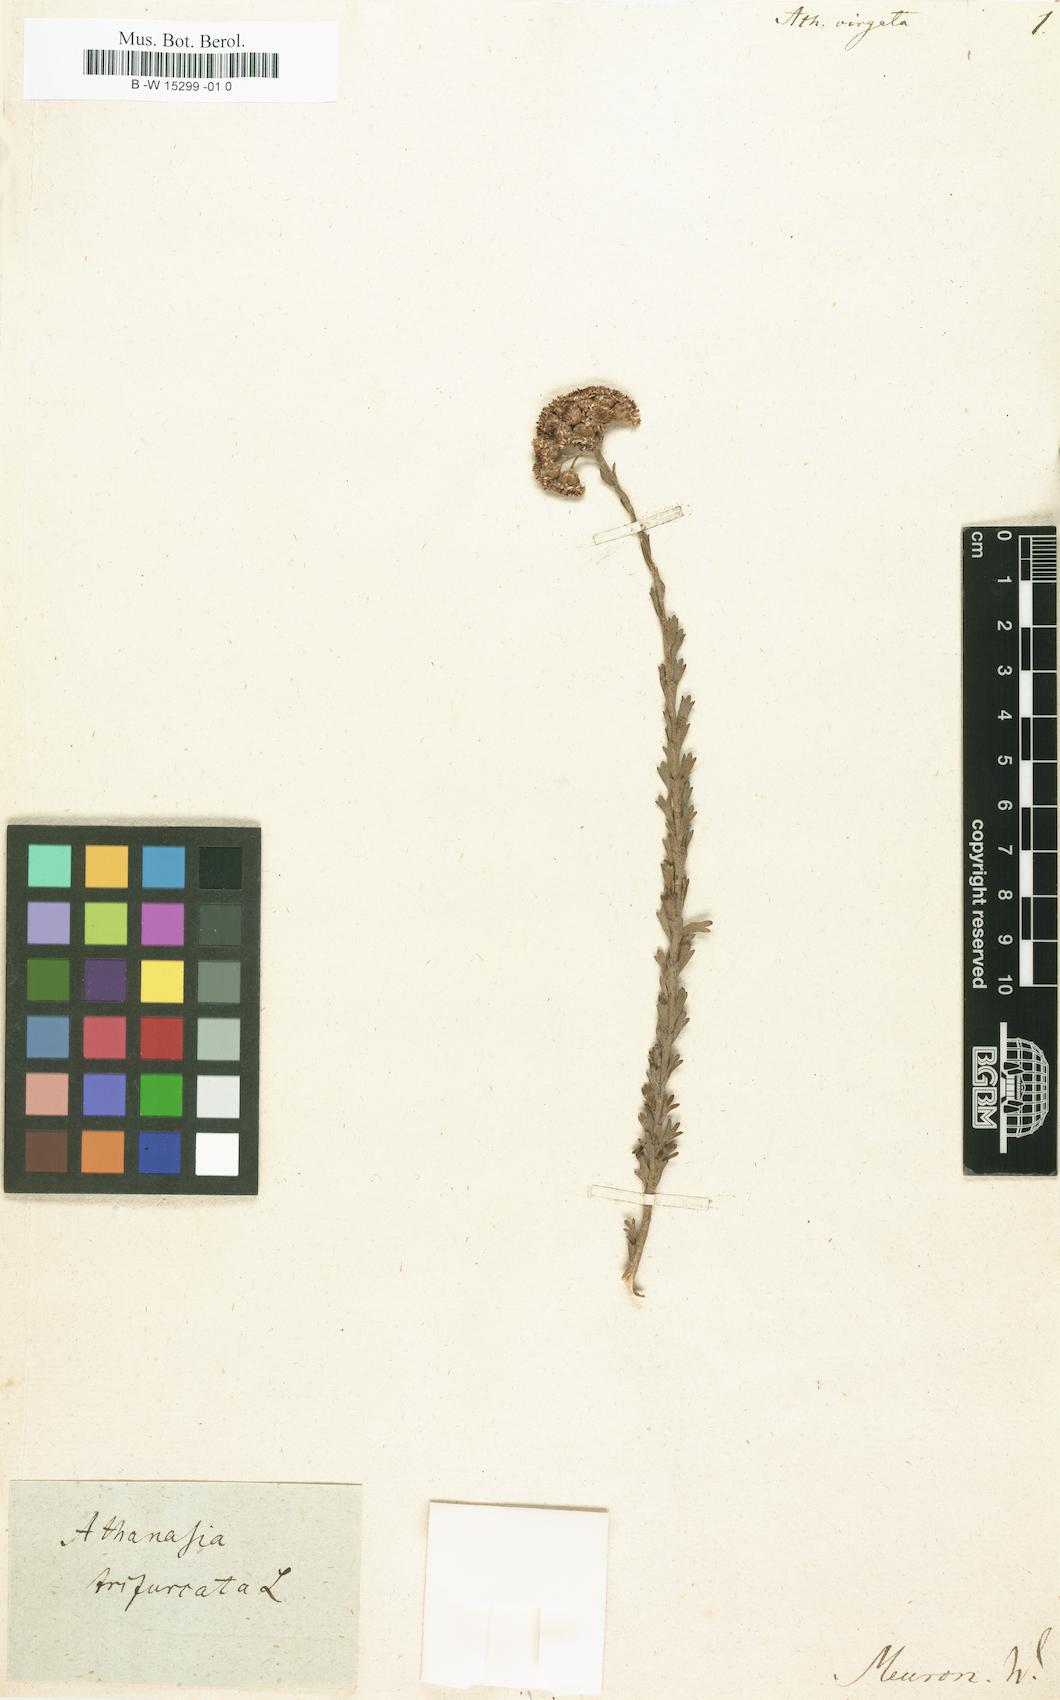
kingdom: Plantae
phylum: Tracheophyta
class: Magnoliopsida
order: Asterales
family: Asteraceae
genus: Athanasia
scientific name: Athanasia virgata
